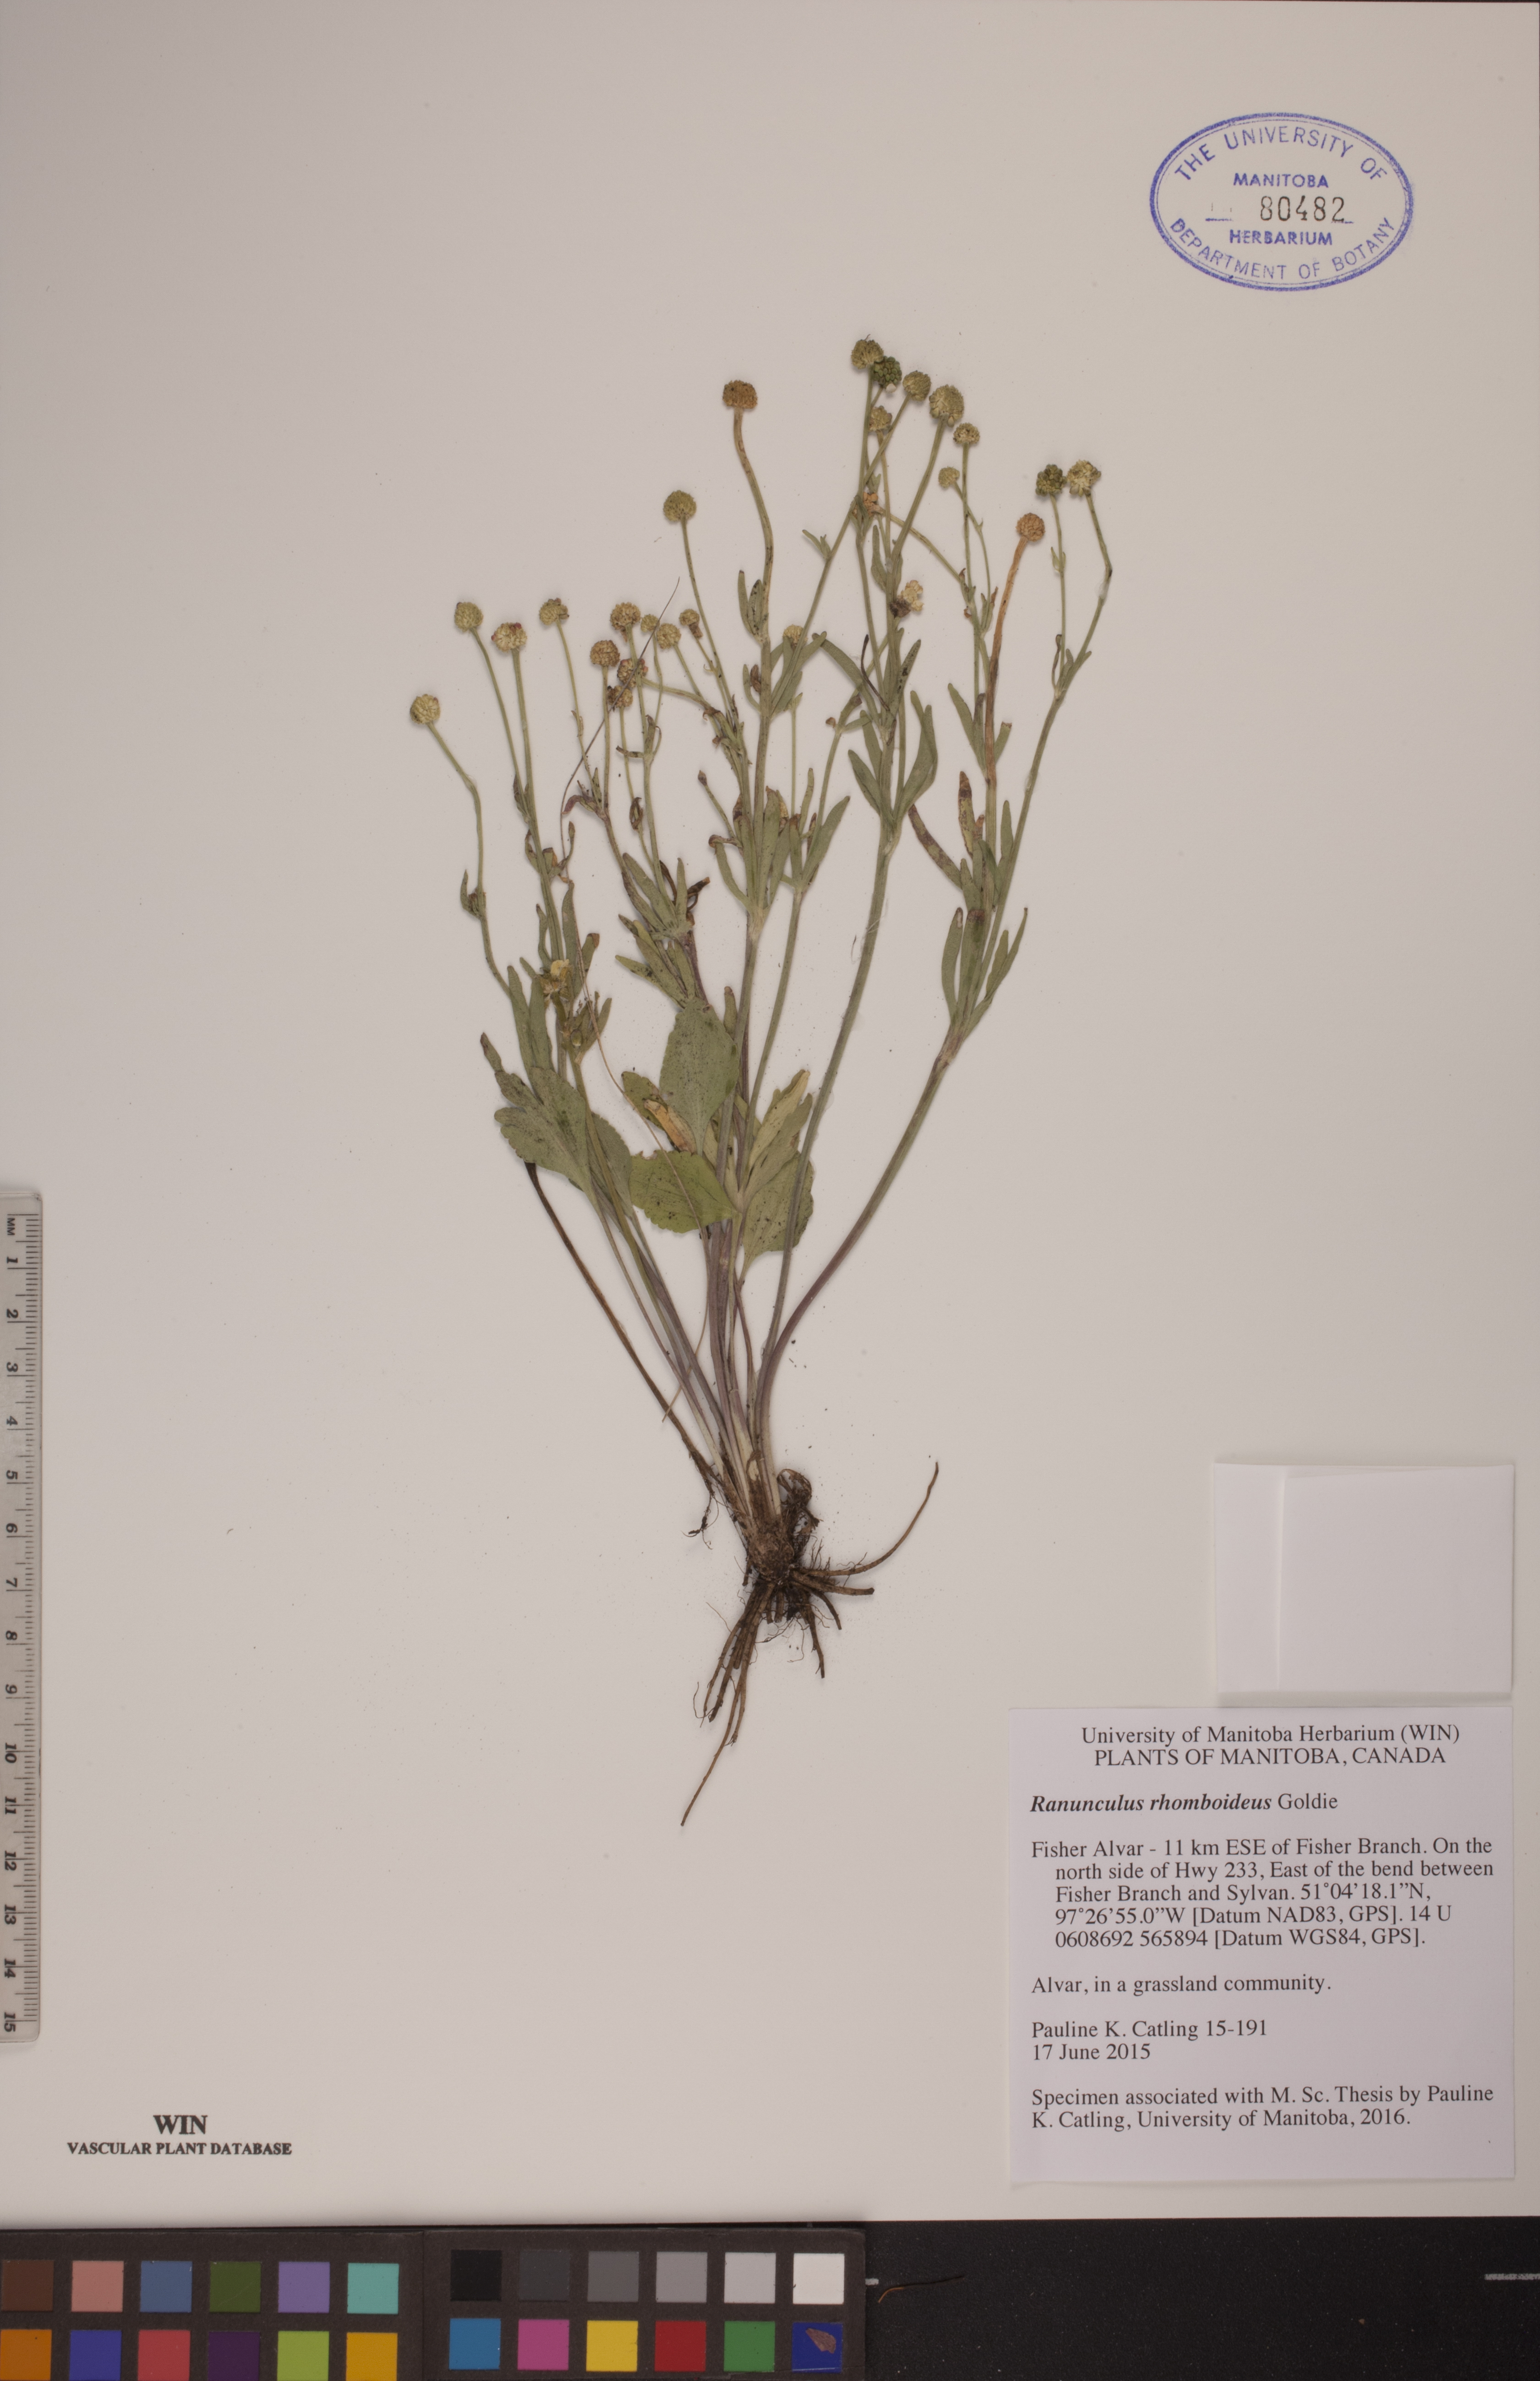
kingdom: Plantae
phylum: Tracheophyta
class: Magnoliopsida
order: Ranunculales
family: Ranunculaceae
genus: Ranunculus
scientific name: Ranunculus rhomboideus
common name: Prairie buttercup
